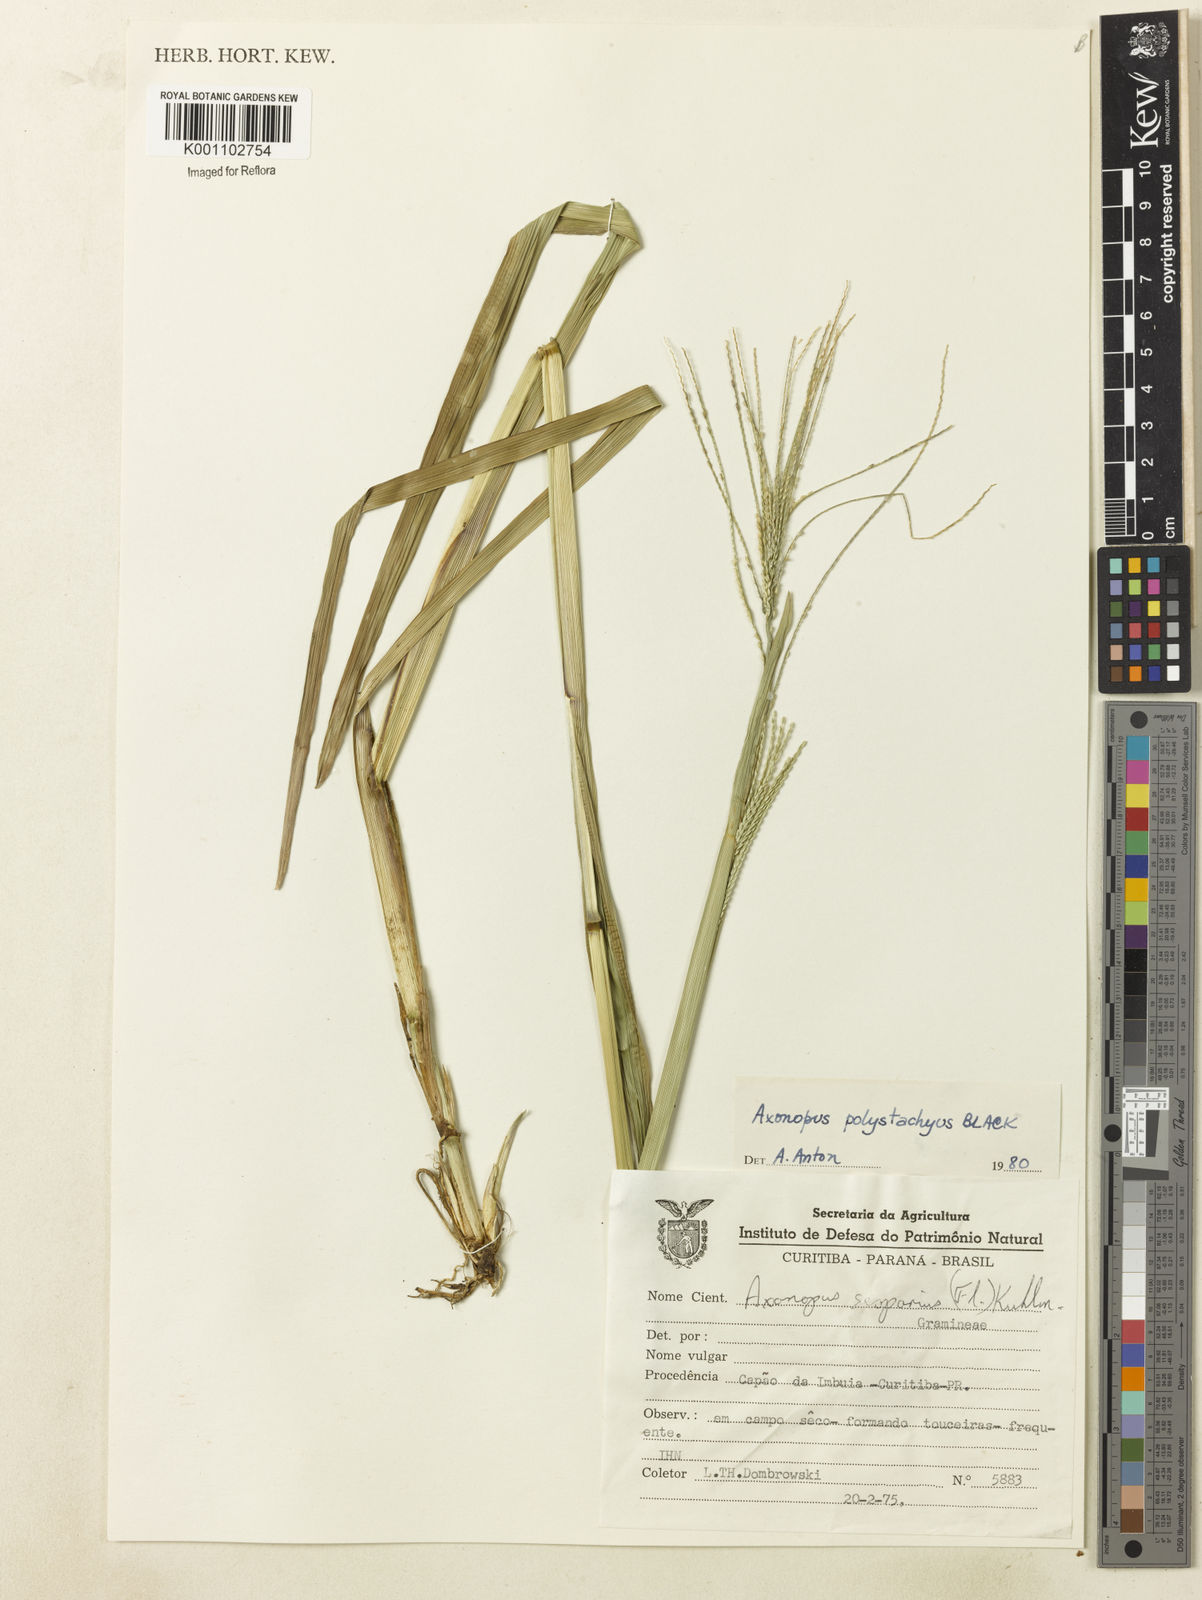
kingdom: Plantae
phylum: Tracheophyta
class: Liliopsida
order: Poales
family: Poaceae
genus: Axonopus
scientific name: Axonopus polystachyus
